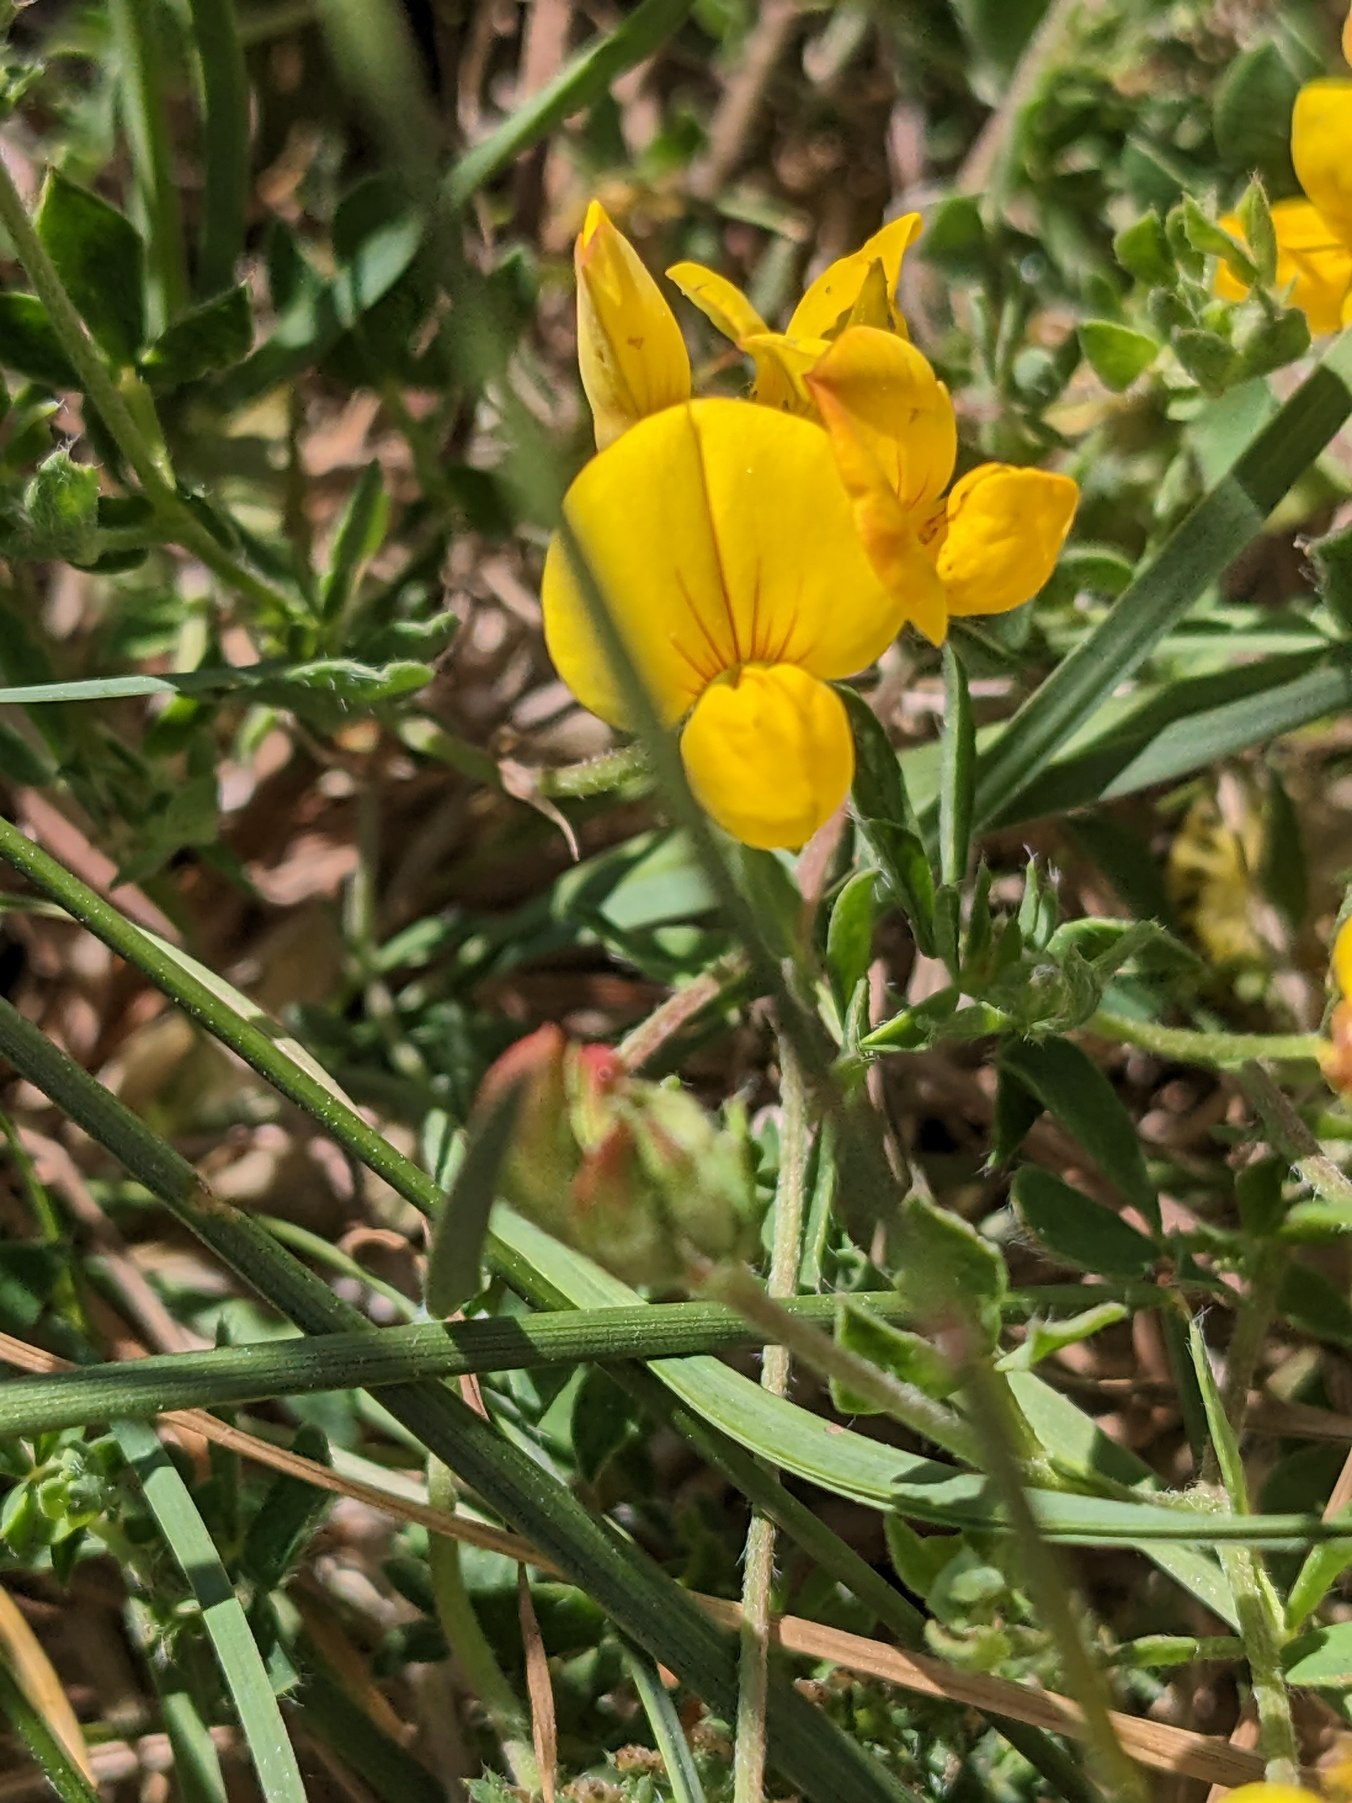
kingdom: Plantae
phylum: Tracheophyta
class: Magnoliopsida
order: Fabales
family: Fabaceae
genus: Lotus
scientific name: Lotus corniculatus
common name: Almindelig kællingetand
